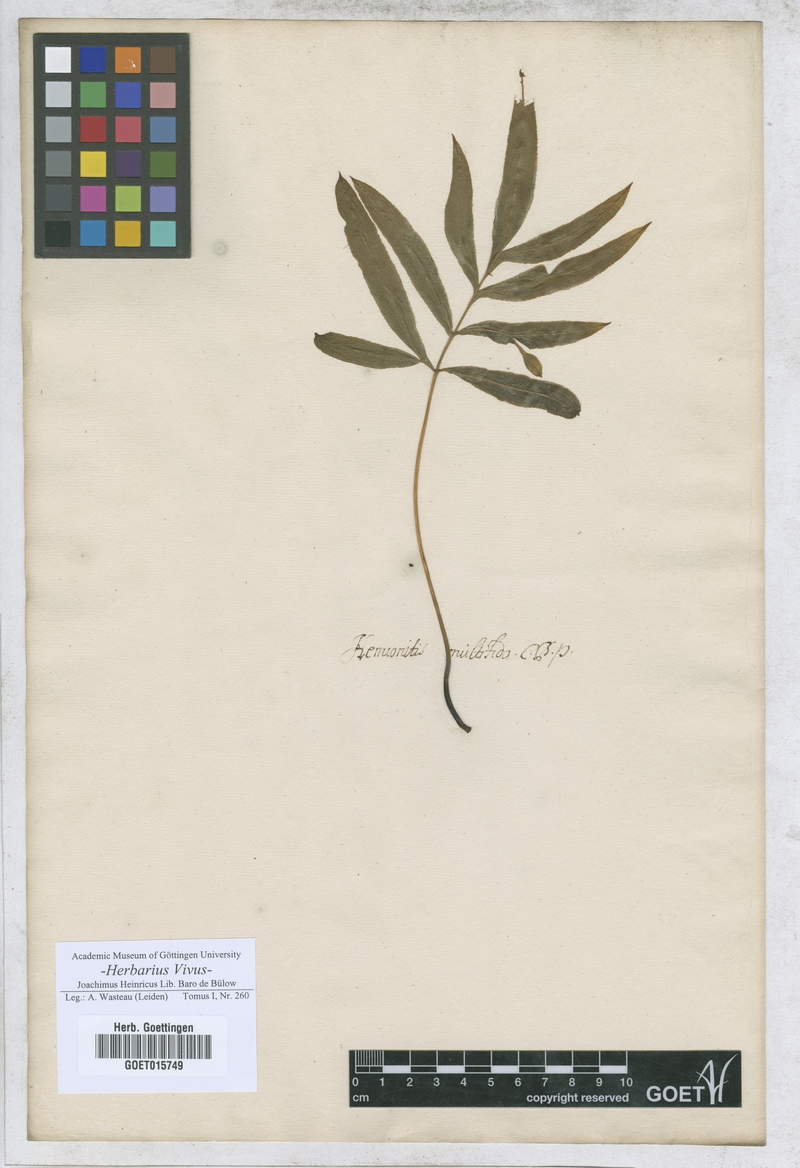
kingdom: Plantae
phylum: Tracheophyta
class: Magnoliopsida
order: Caryophyllales
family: Polygonaceae
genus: Lapathum
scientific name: Lapathum
